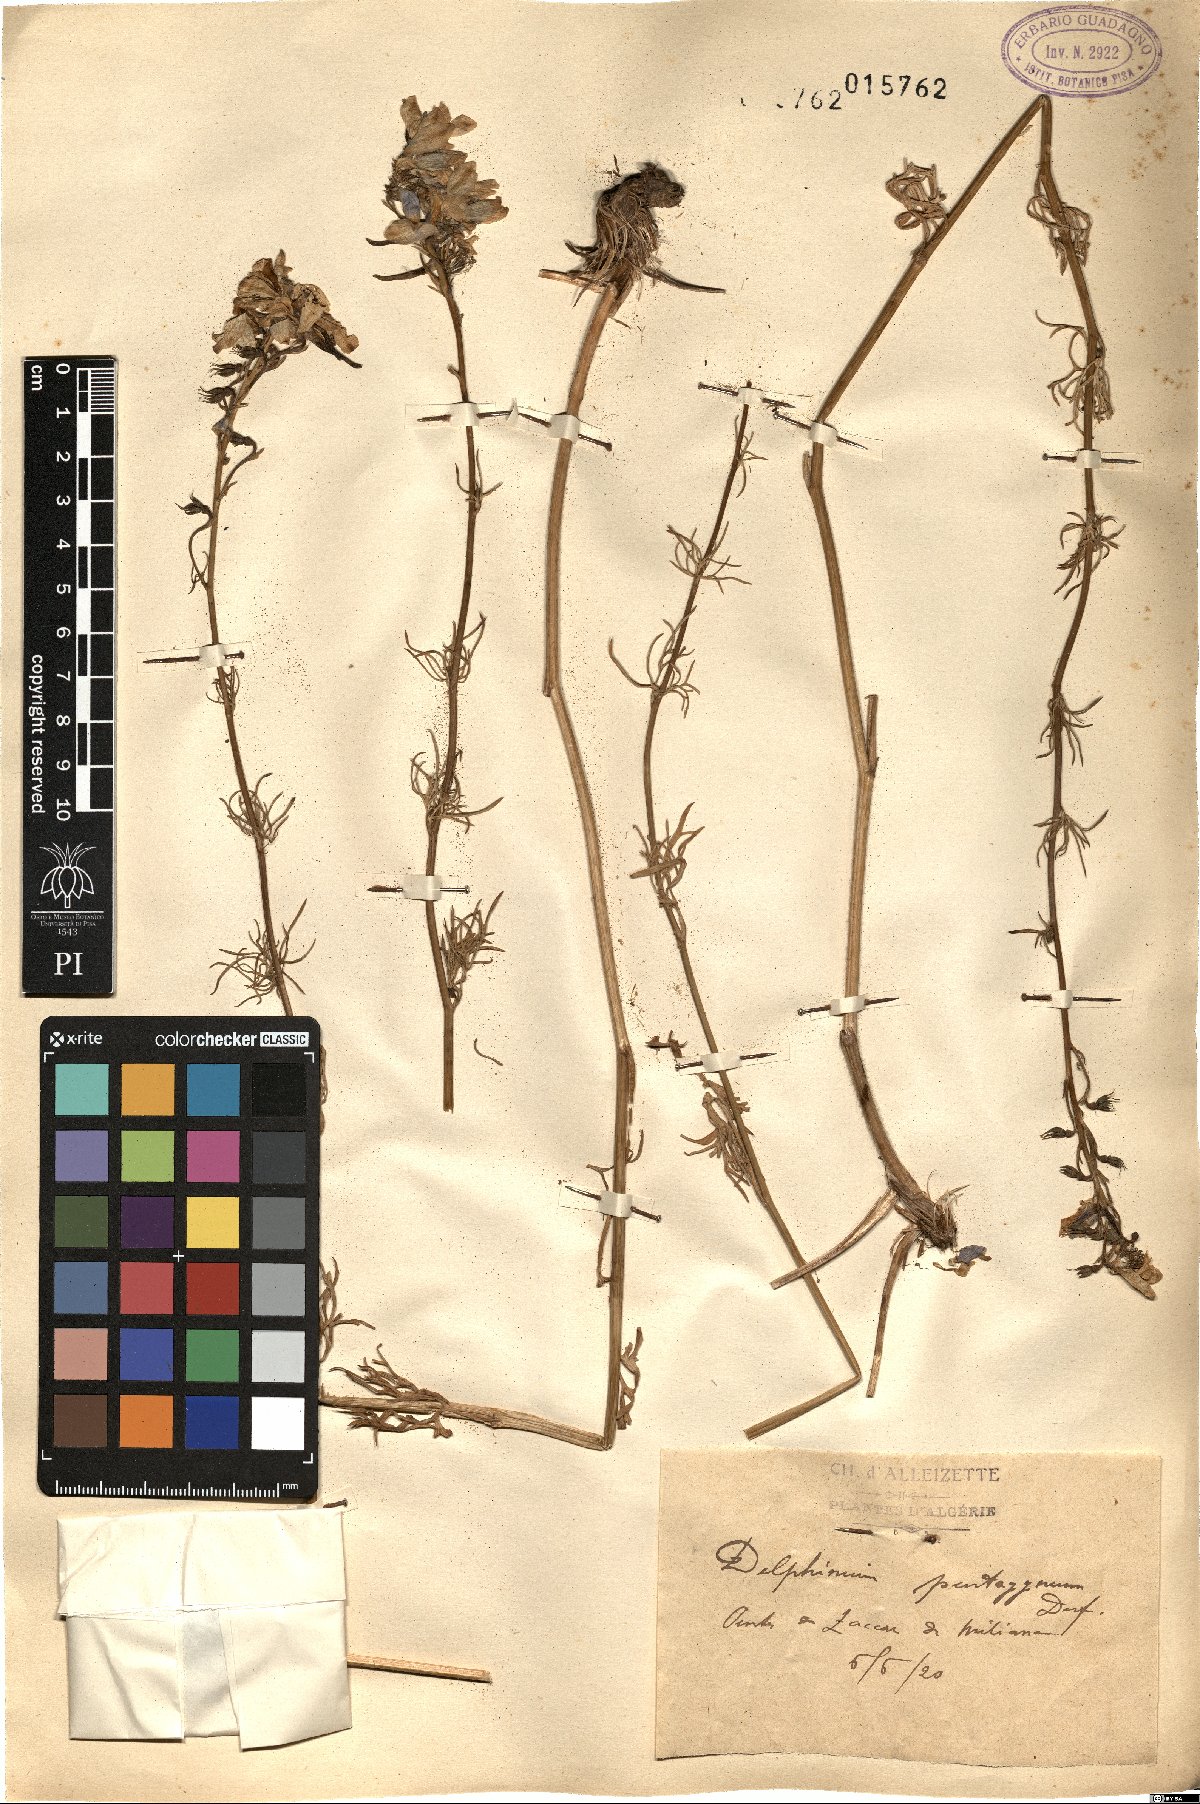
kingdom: Plantae
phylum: Tracheophyta
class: Magnoliopsida
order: Ranunculales
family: Ranunculaceae
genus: Delphinium
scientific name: Delphinium pentagynum
